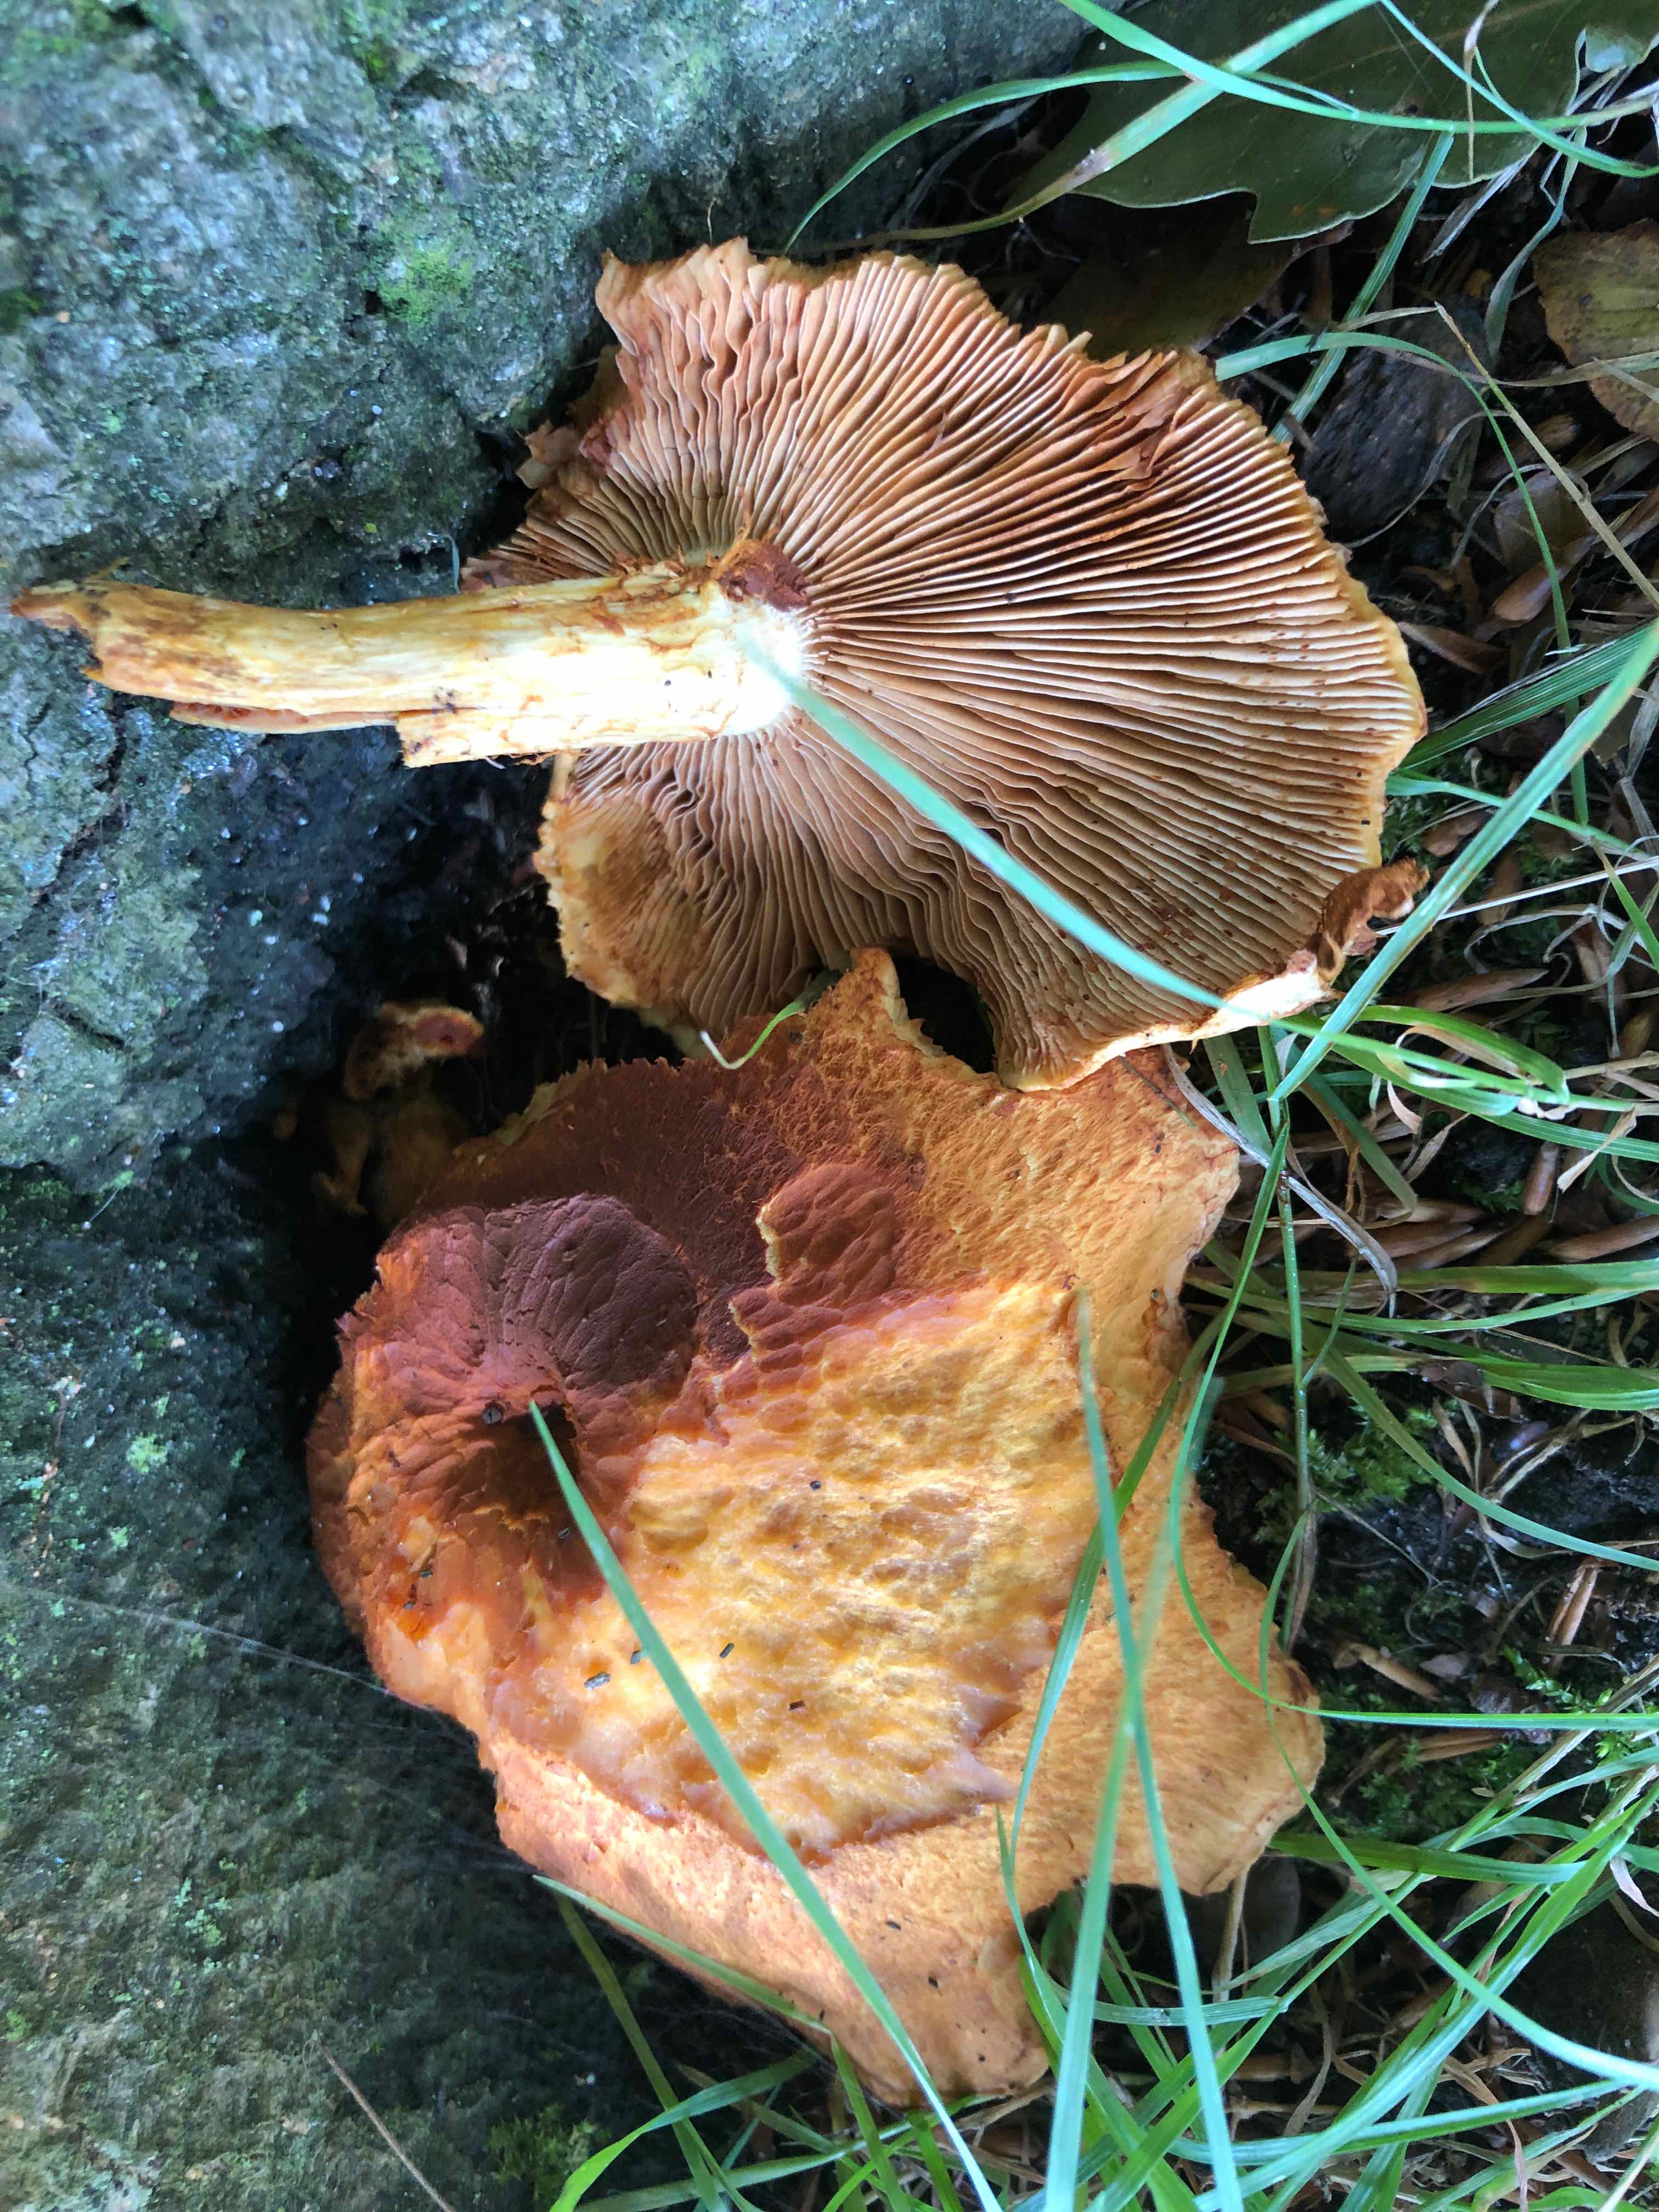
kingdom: Fungi
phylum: Basidiomycota
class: Agaricomycetes
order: Agaricales
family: Hymenogastraceae
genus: Gymnopilus
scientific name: Gymnopilus spectabilis
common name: fibret flammehat
